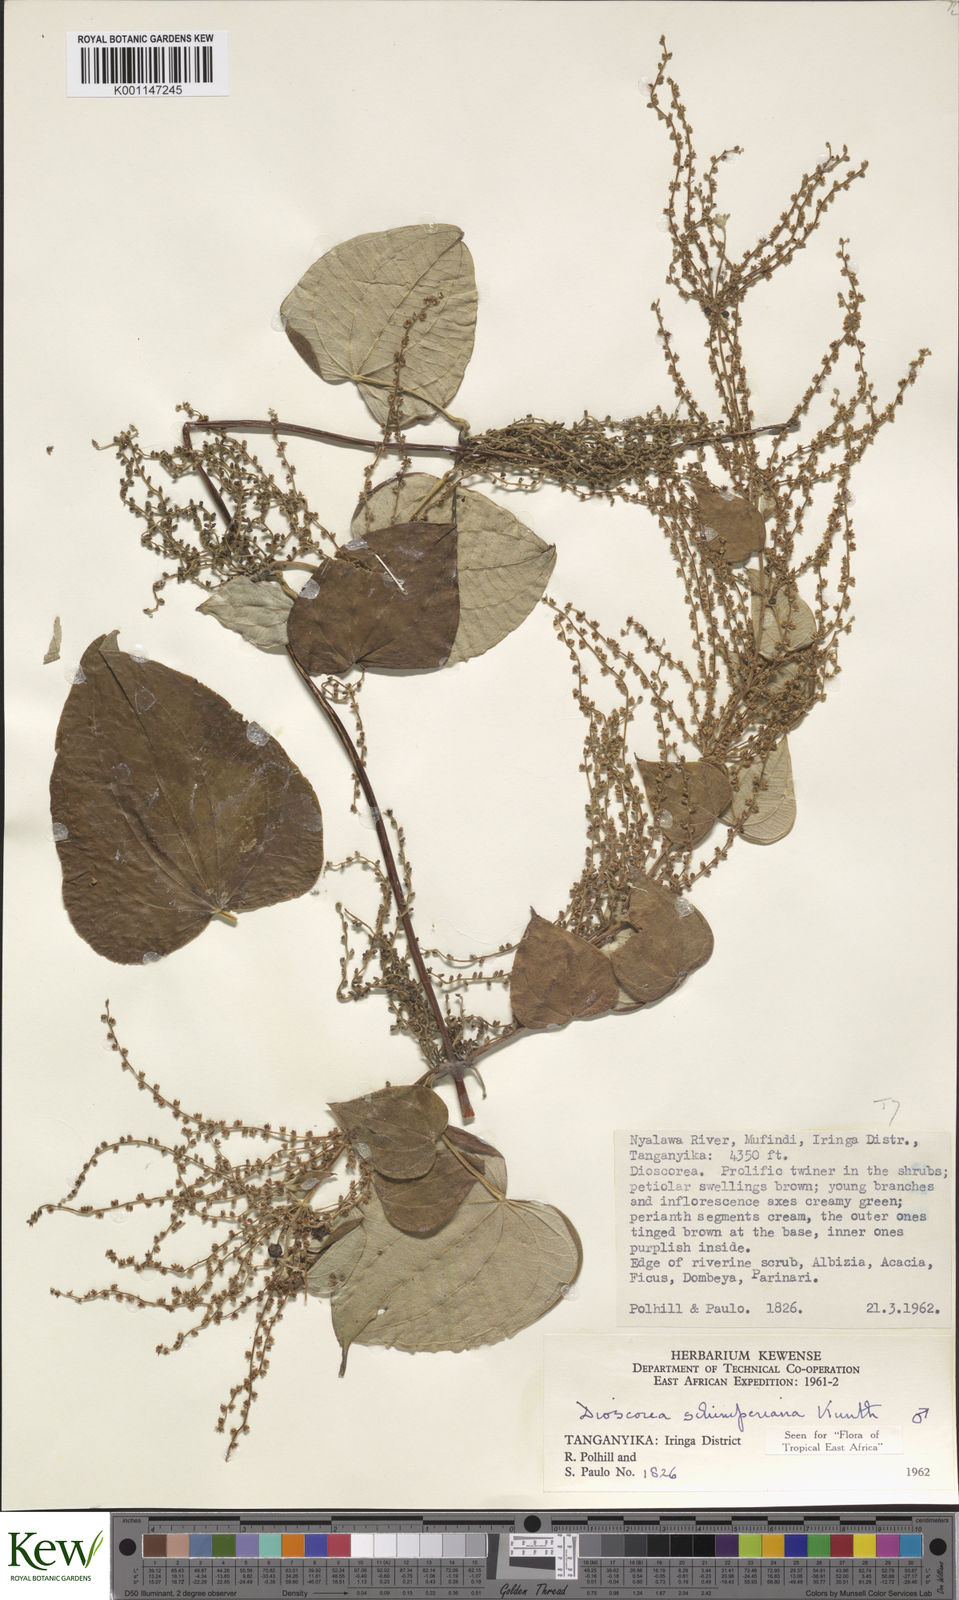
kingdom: Plantae
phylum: Tracheophyta
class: Liliopsida
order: Dioscoreales
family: Dioscoreaceae
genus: Dioscorea
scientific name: Dioscorea schimperiana
